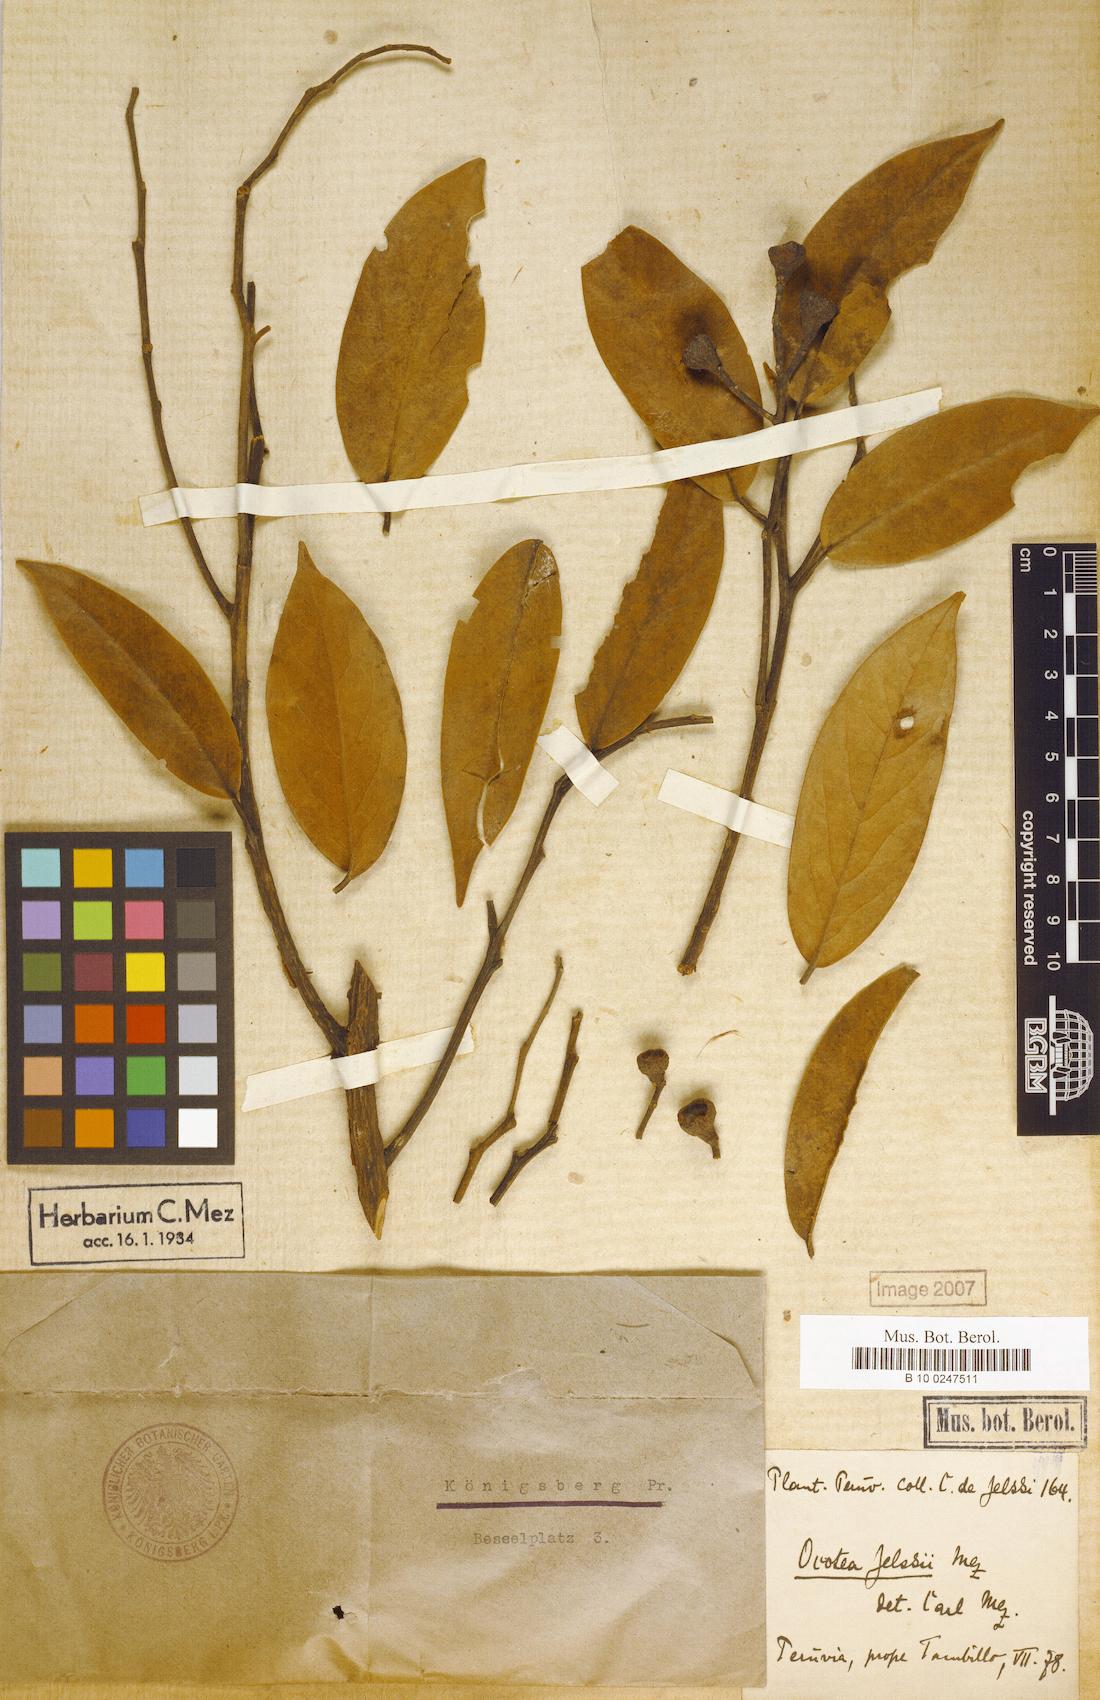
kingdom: Plantae
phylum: Tracheophyta
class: Magnoliopsida
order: Laurales
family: Lauraceae
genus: Ocotea
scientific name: Ocotea jelskii
